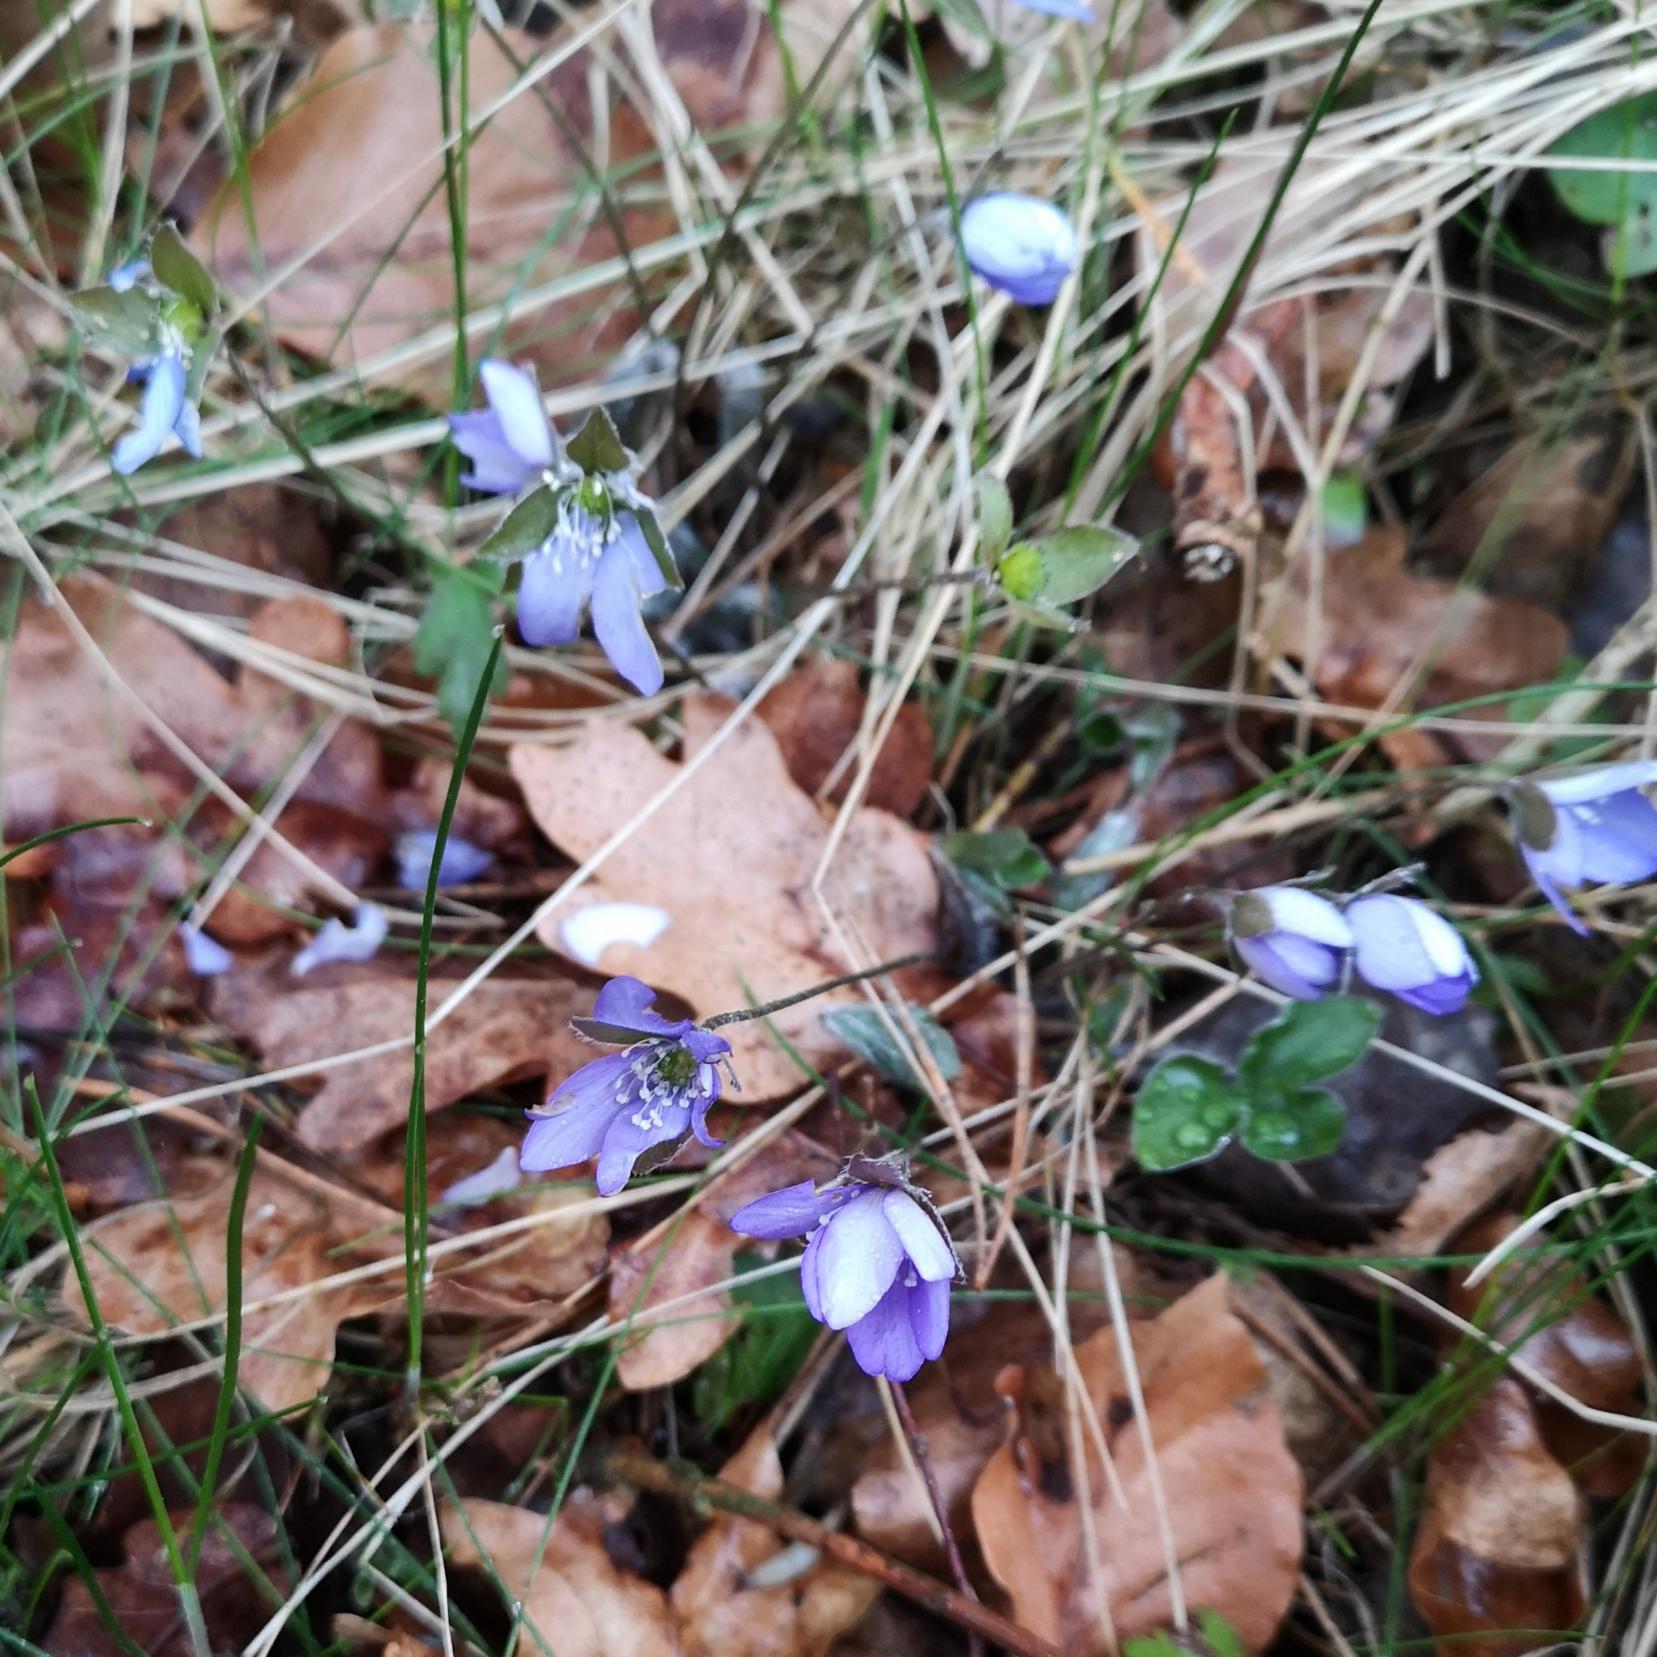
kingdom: Plantae
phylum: Tracheophyta
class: Magnoliopsida
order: Ranunculales
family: Ranunculaceae
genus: Hepatica
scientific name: Hepatica nobilis
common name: Blå anemone
